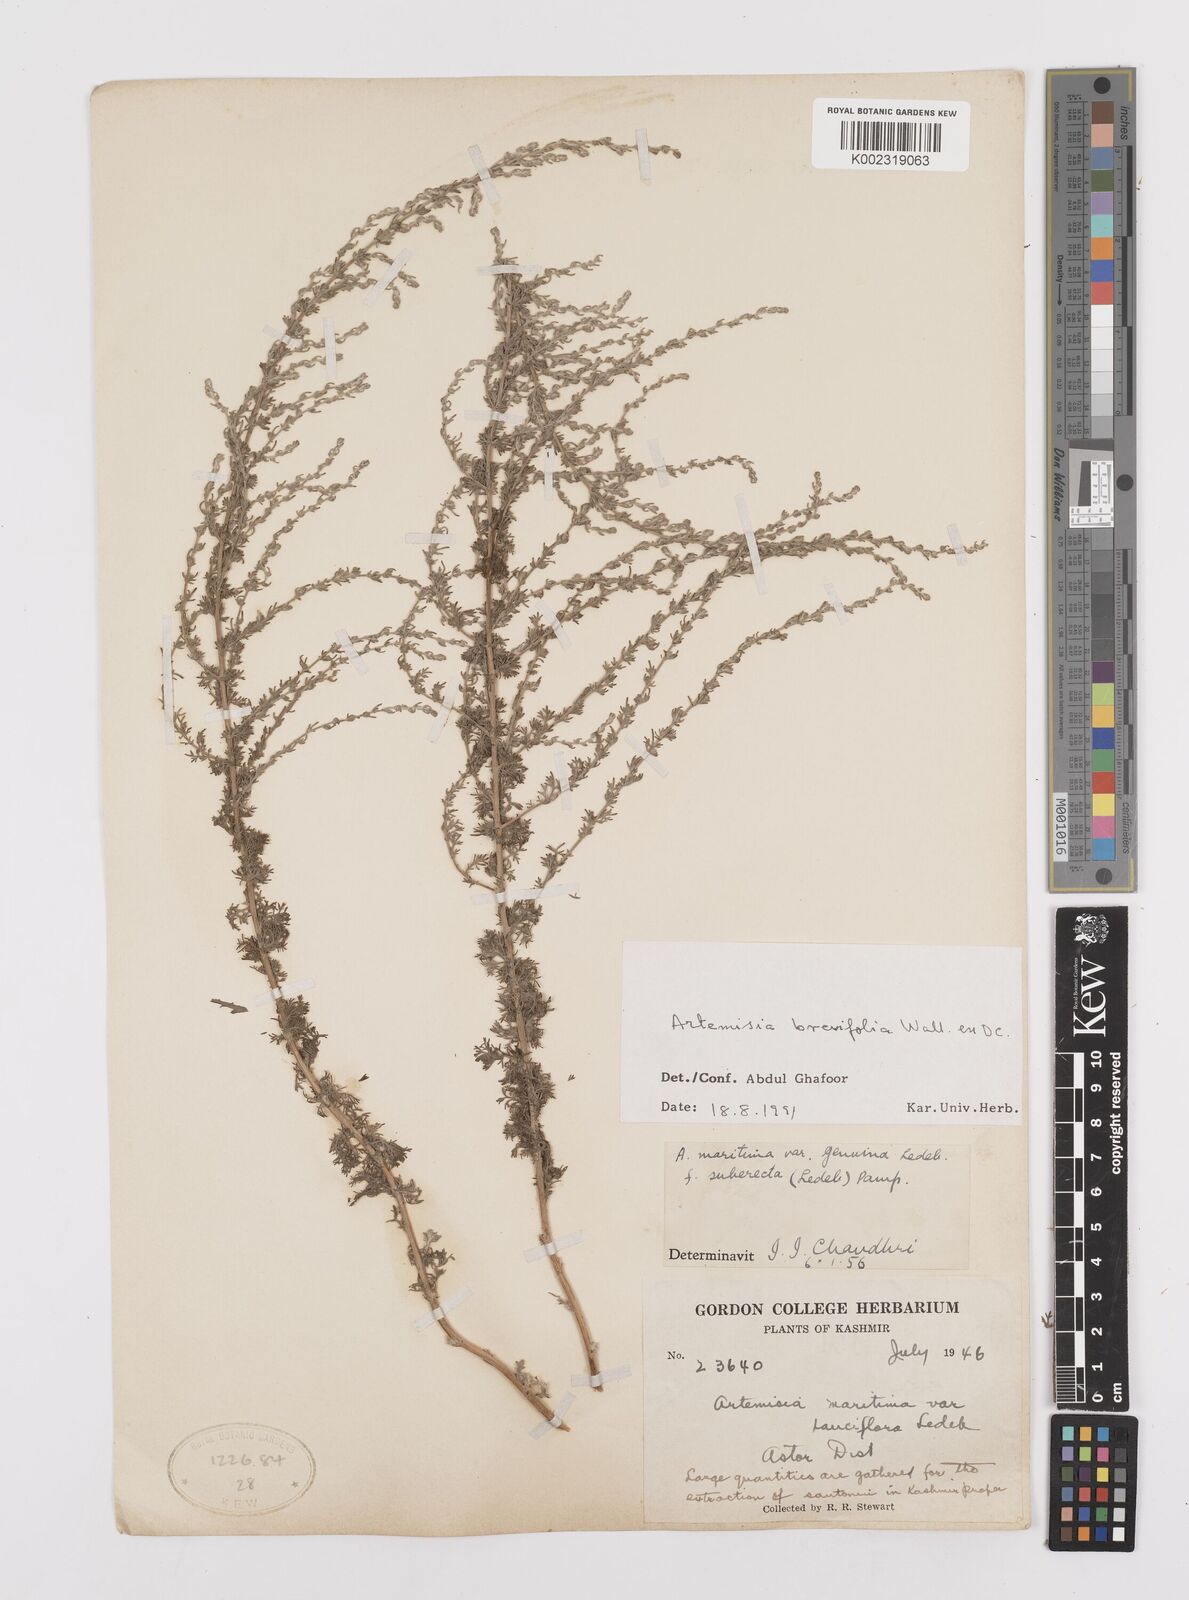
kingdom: Plantae
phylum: Tracheophyta
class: Magnoliopsida
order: Asterales
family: Asteraceae
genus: Artemisia
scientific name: Artemisia brevifolia
